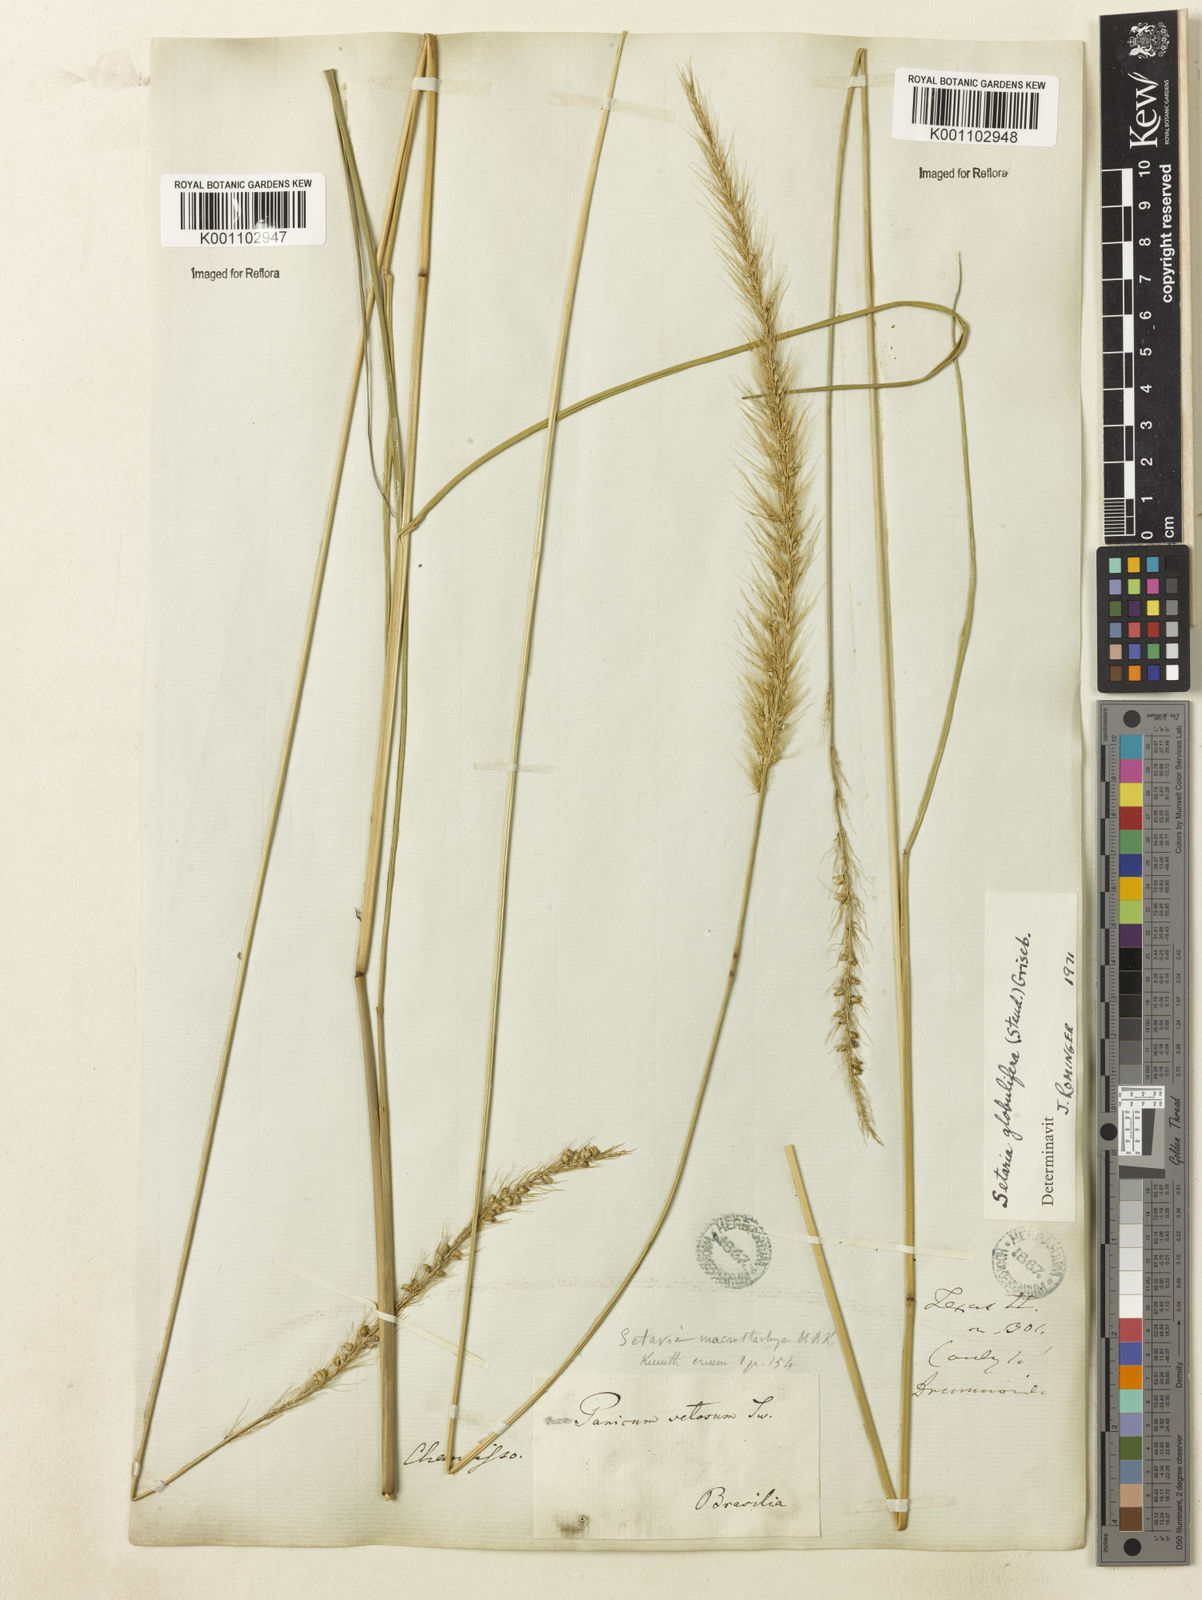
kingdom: Plantae
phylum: Tracheophyta
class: Liliopsida
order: Poales
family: Poaceae
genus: Setaria
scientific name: Setaria globulifera
